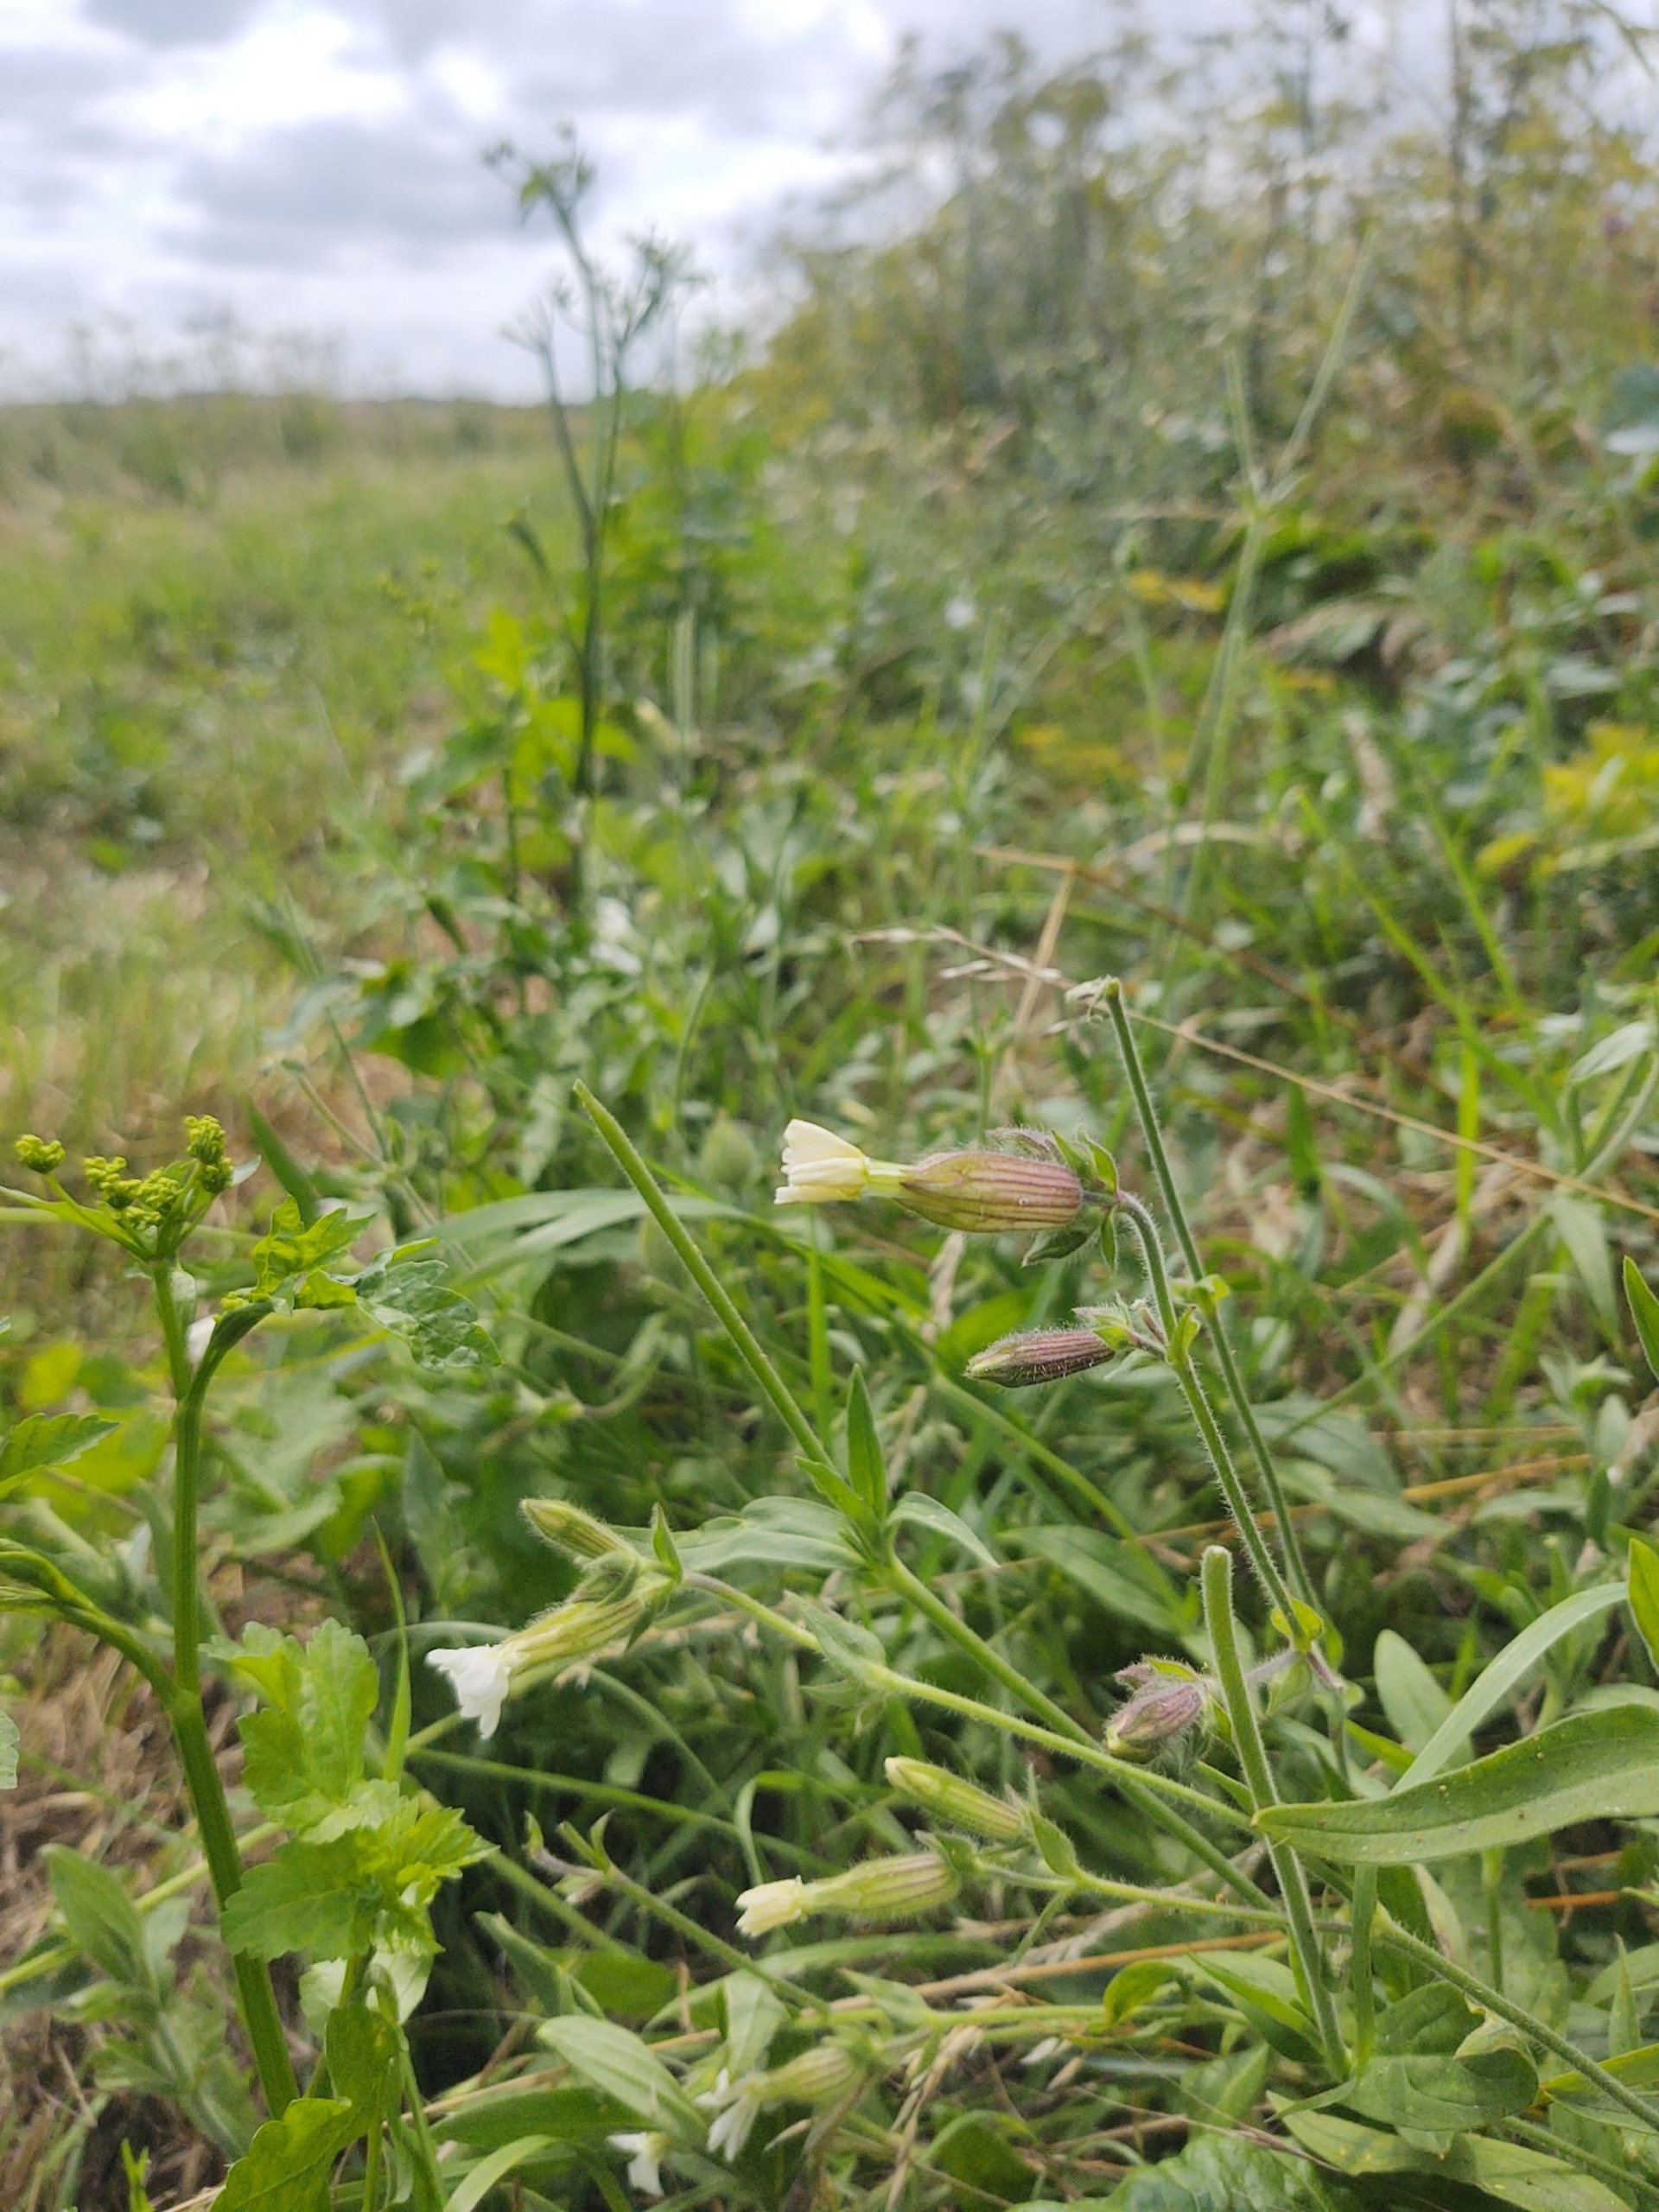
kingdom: Plantae
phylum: Tracheophyta
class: Magnoliopsida
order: Caryophyllales
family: Caryophyllaceae
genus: Silene
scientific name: Silene latifolia
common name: Aftenpragtstjerne
